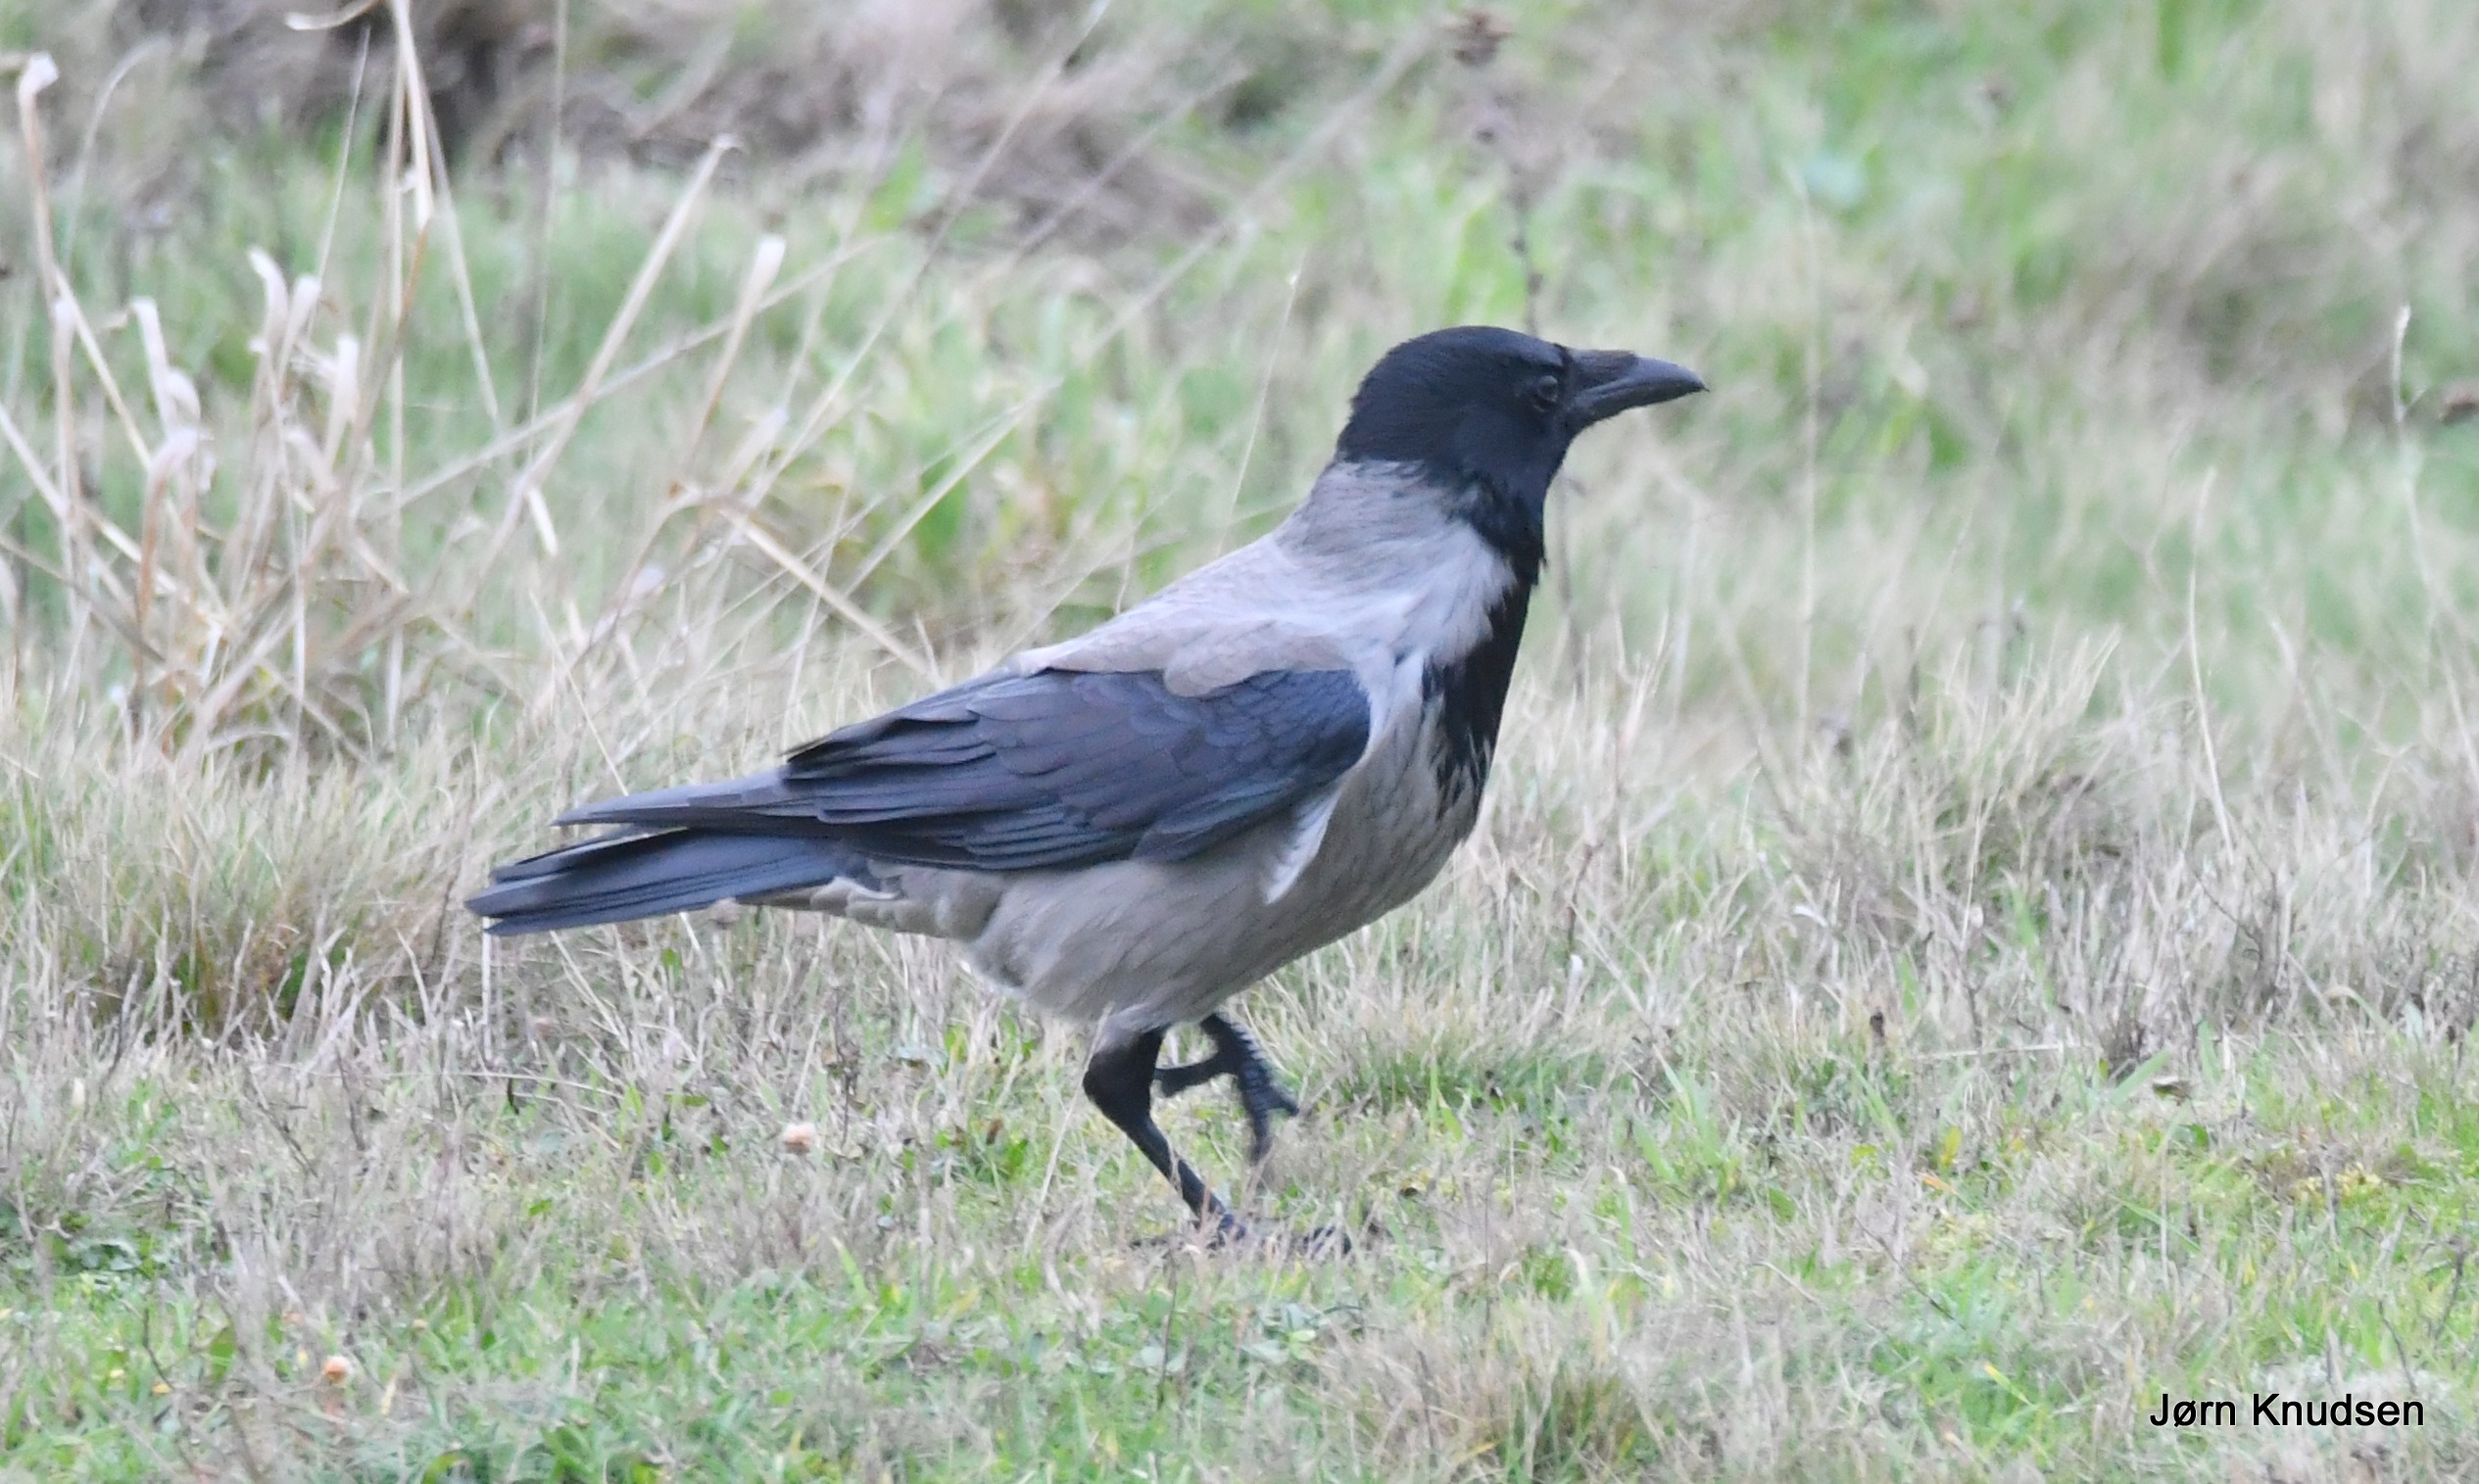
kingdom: Animalia
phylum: Chordata
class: Aves
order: Passeriformes
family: Corvidae
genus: Corvus
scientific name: Corvus cornix
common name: Gråkrage
